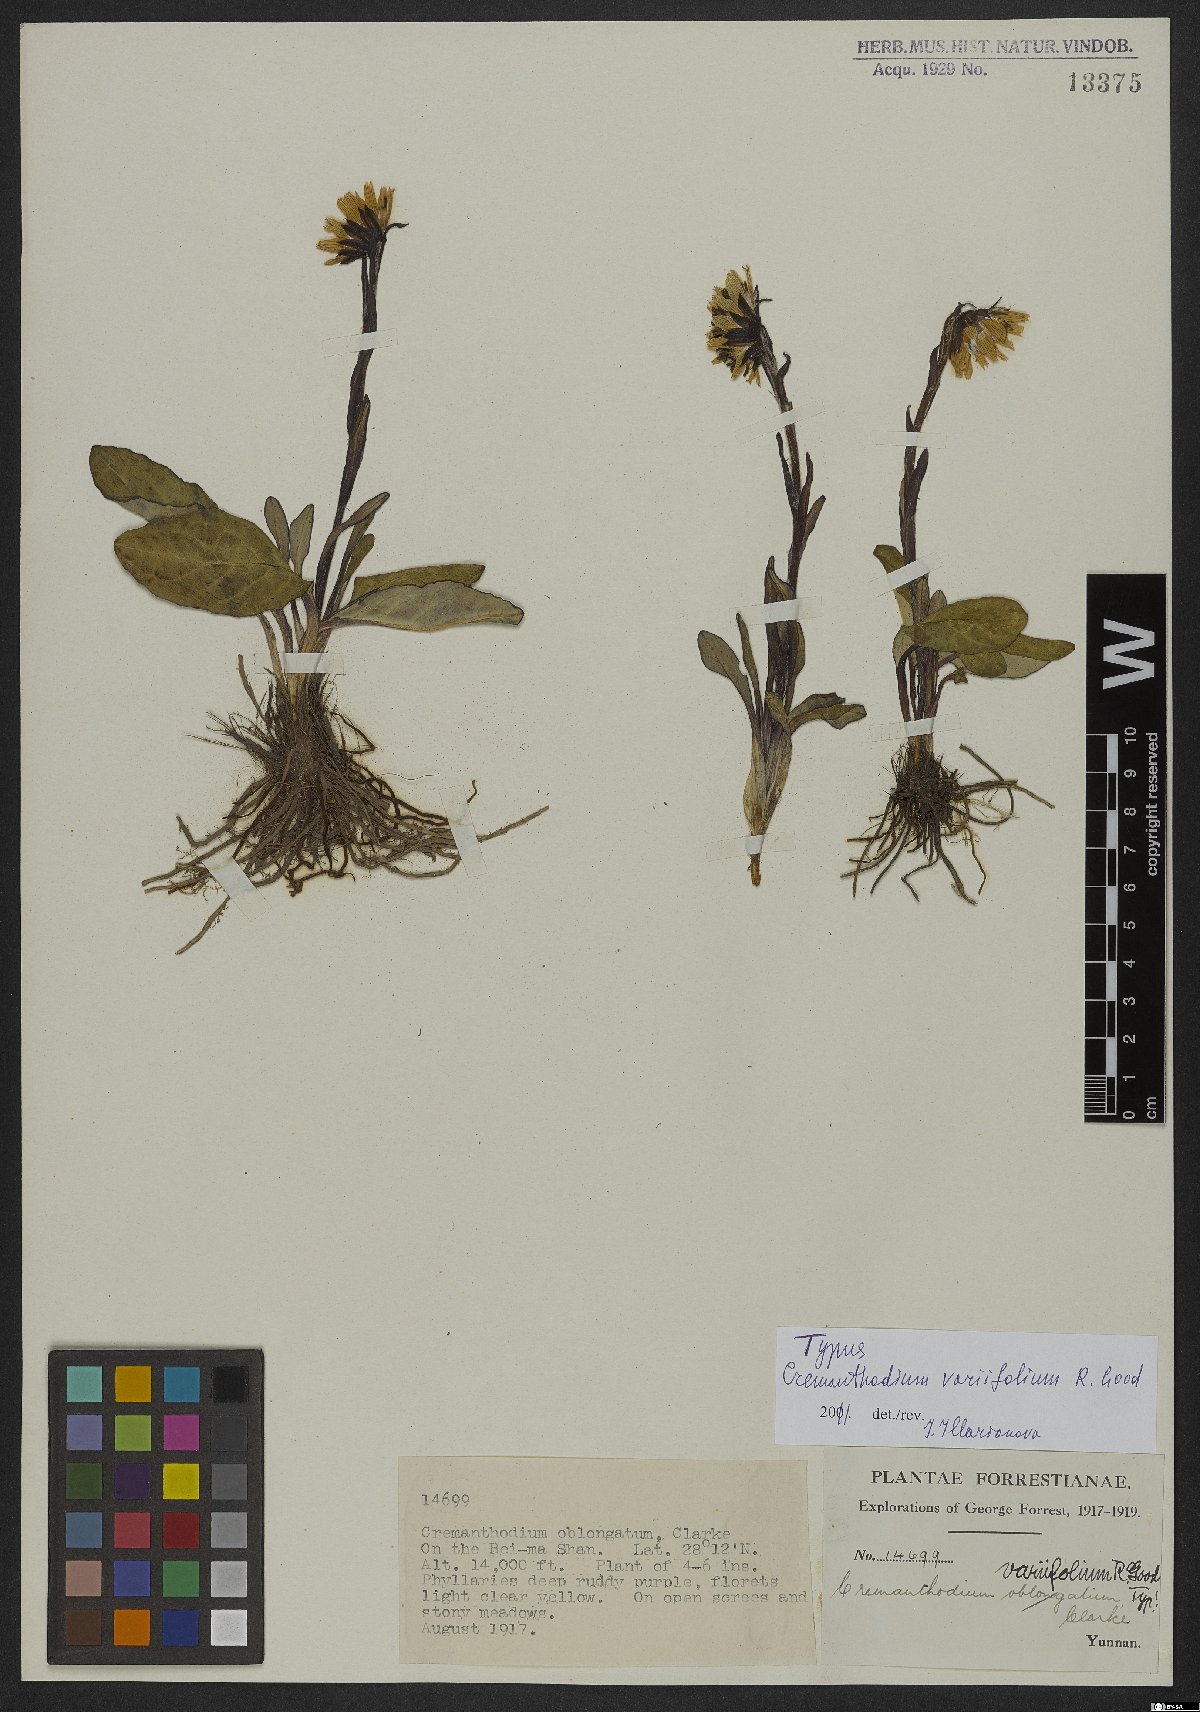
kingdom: Plantae
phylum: Tracheophyta
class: Magnoliopsida
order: Asterales
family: Asteraceae
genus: Cremanthodium
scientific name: Cremanthodium variifolium
